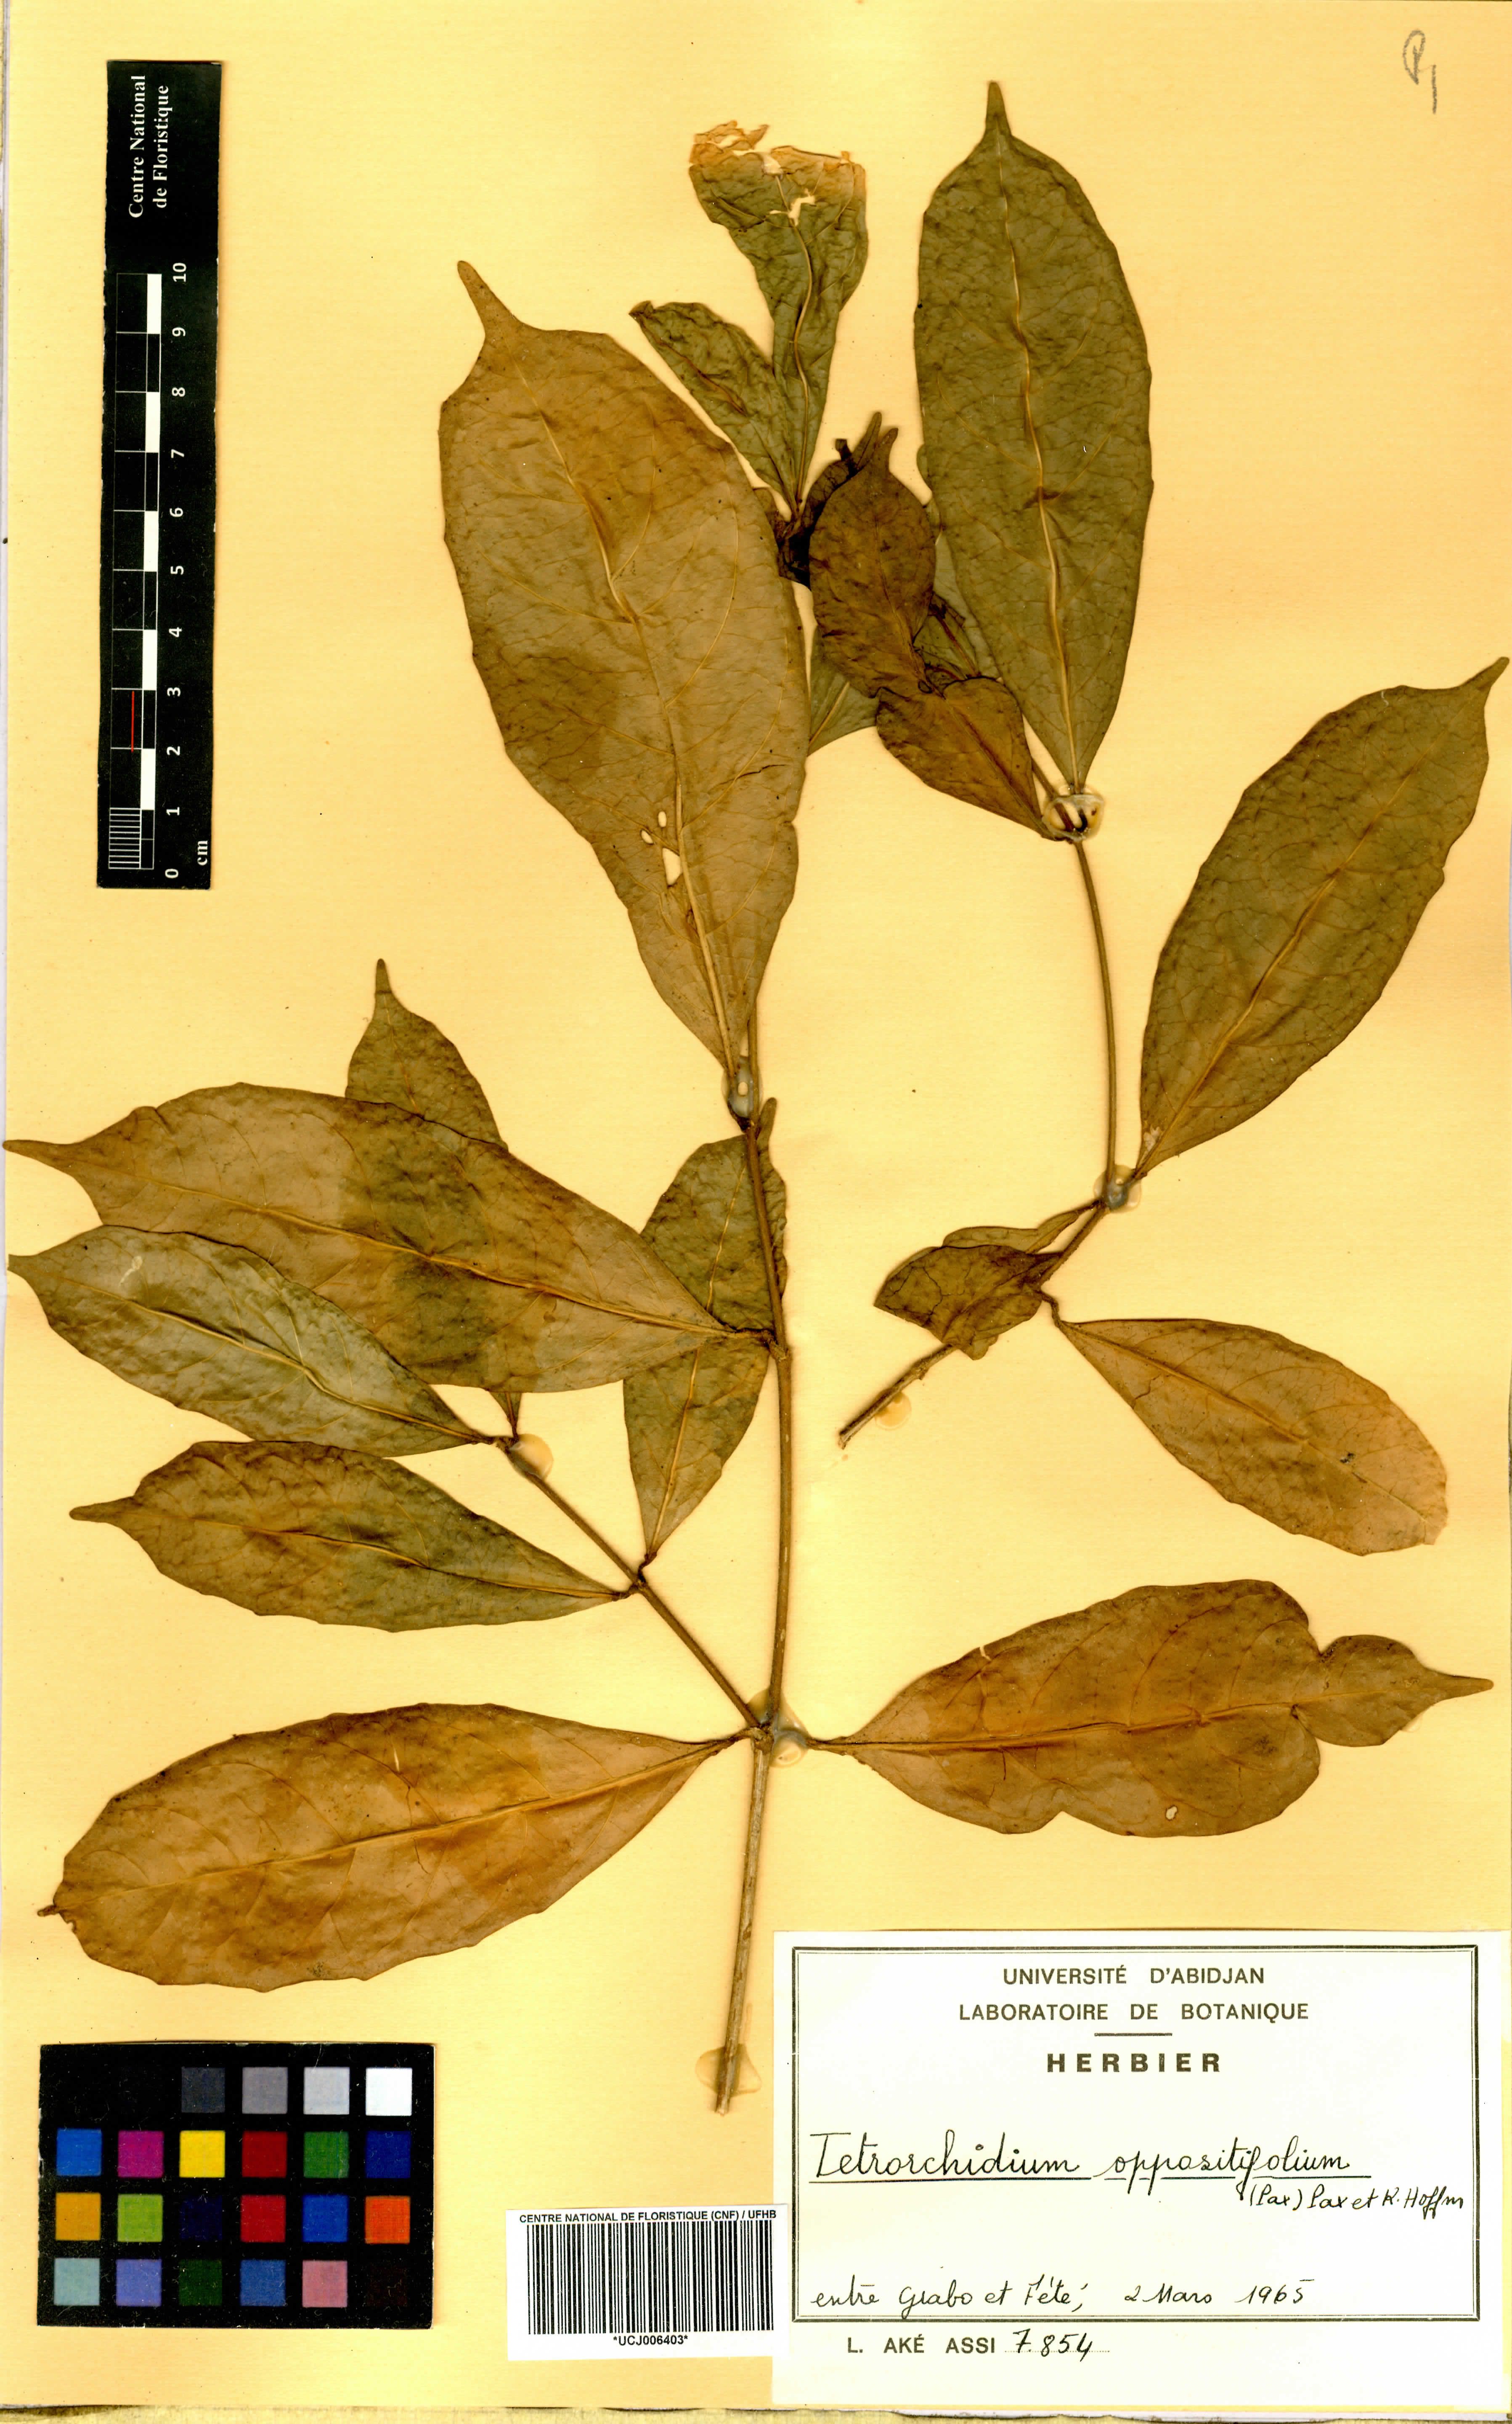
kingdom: Plantae
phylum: Tracheophyta
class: Magnoliopsida
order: Malpighiales
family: Euphorbiaceae
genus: Tetrorchidium
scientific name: Tetrorchidium oppositifolium
